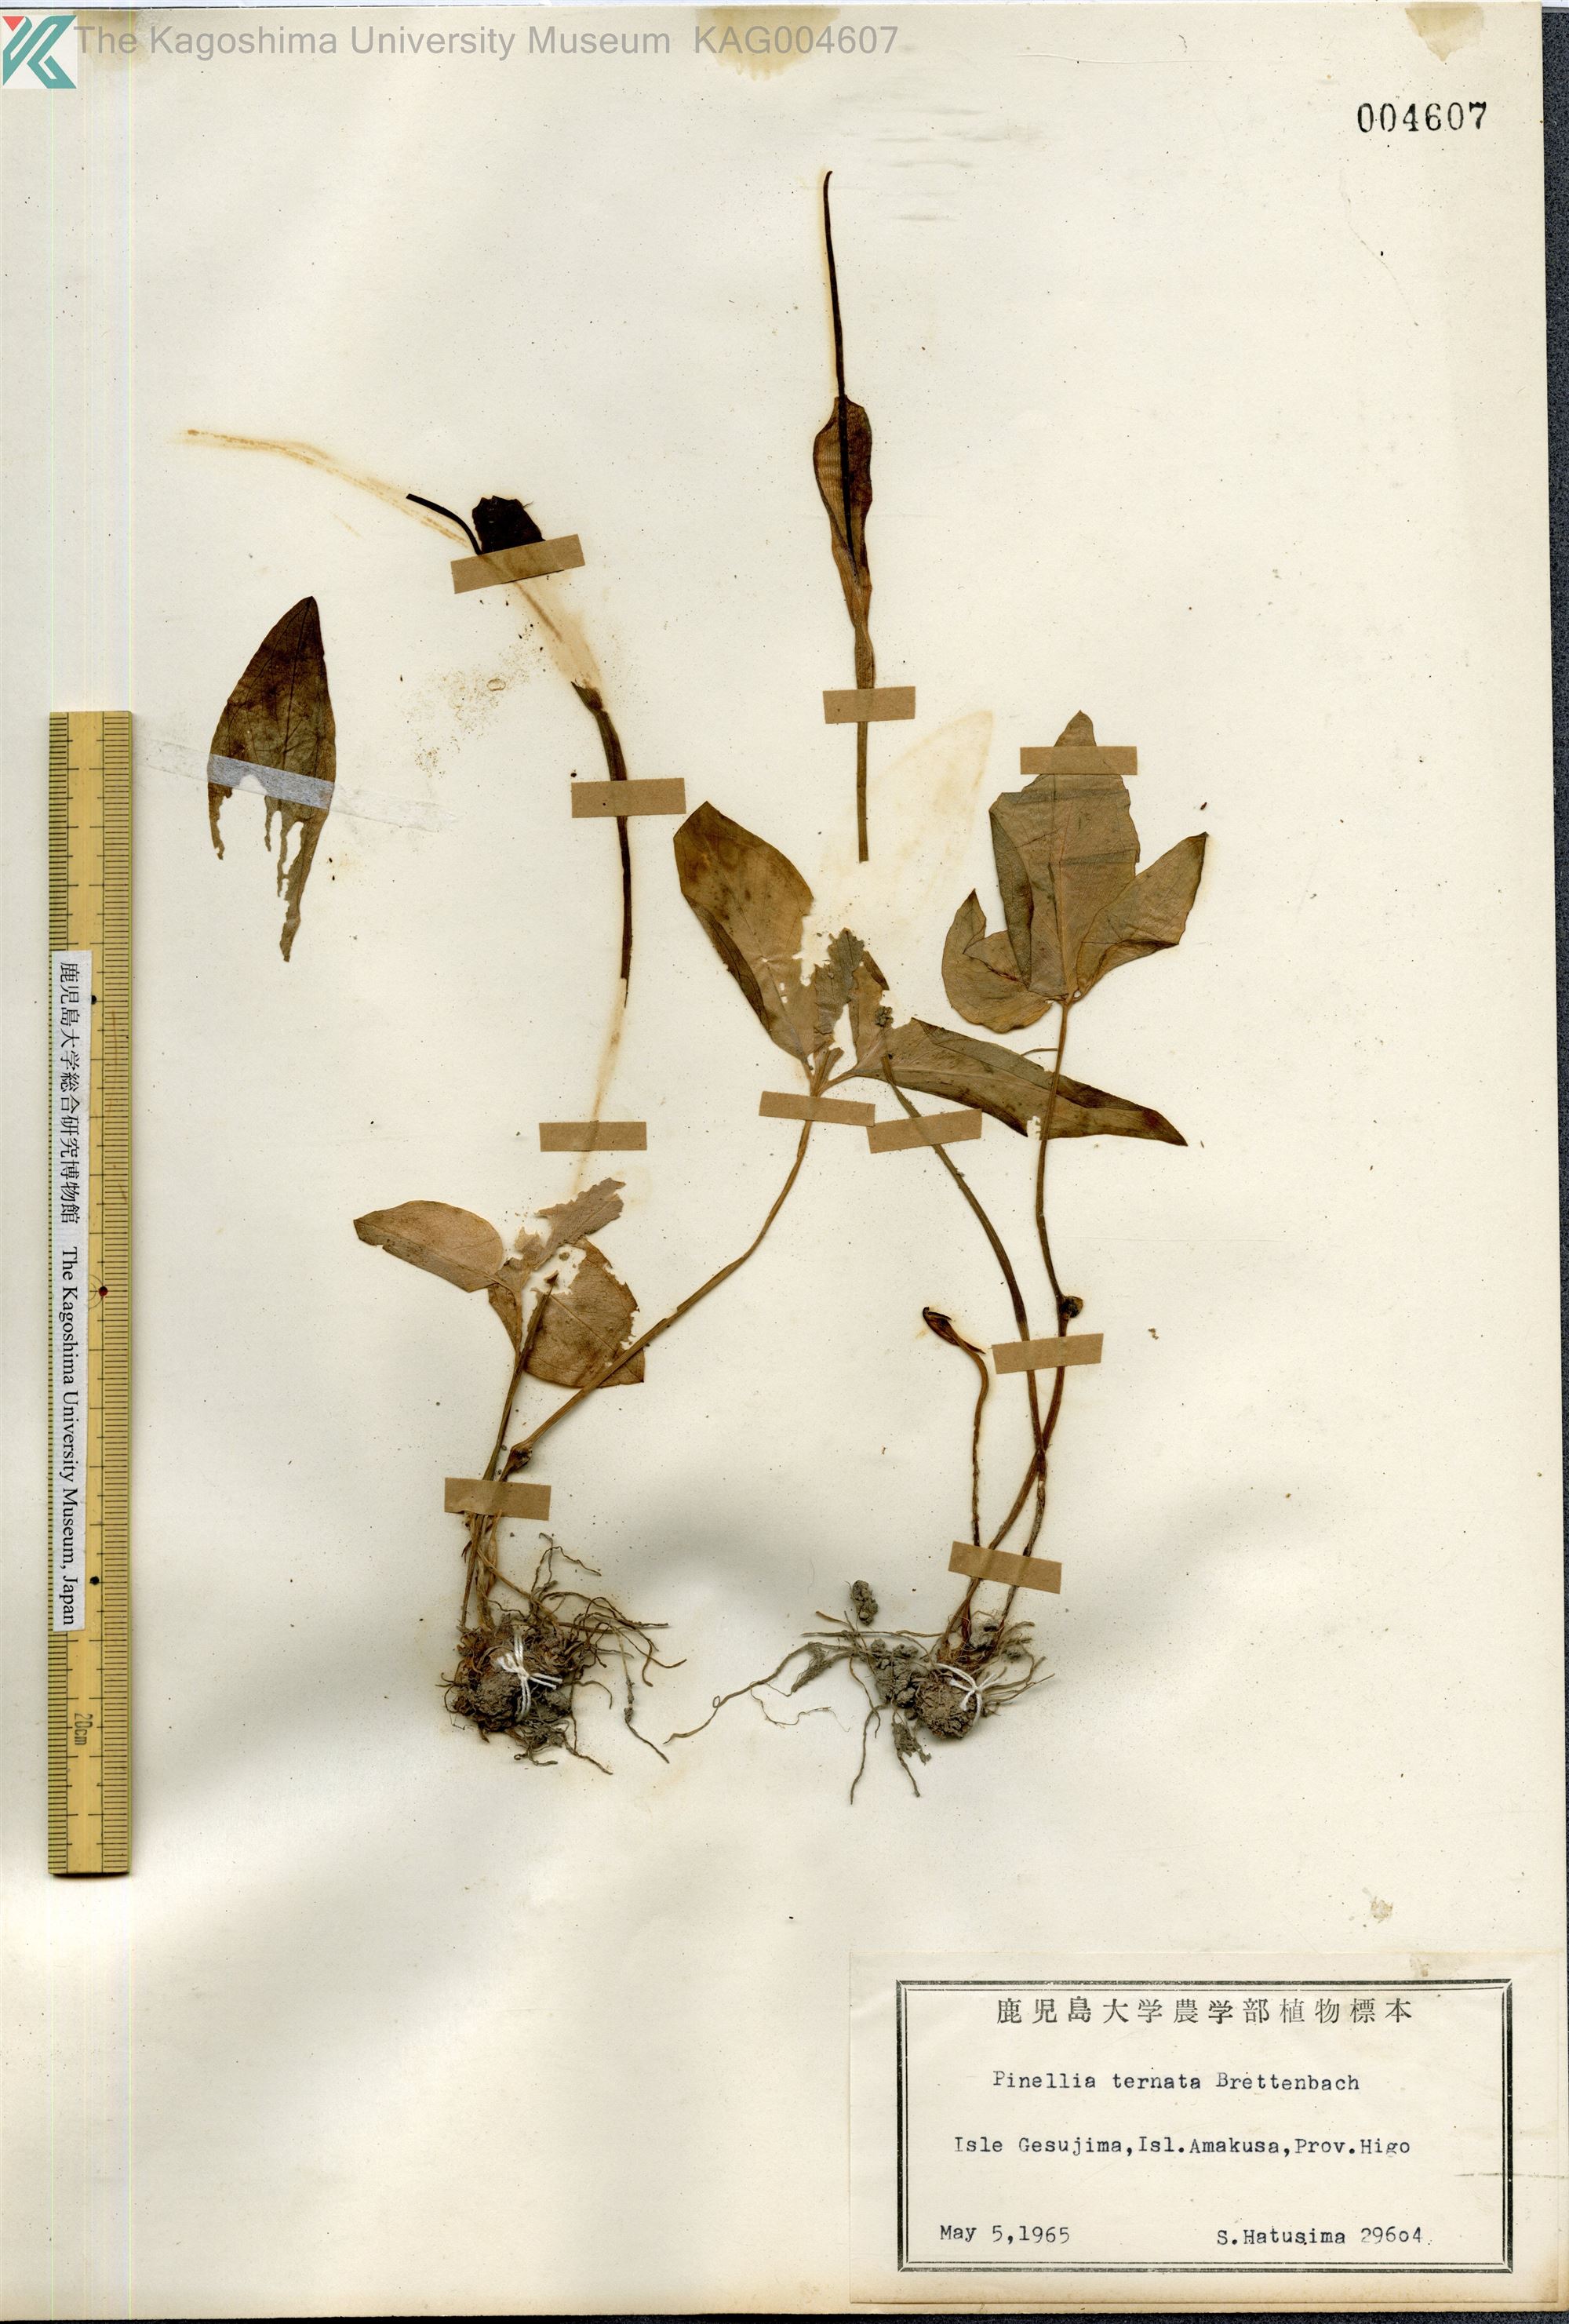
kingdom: Plantae
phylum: Tracheophyta
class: Liliopsida
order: Alismatales
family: Araceae
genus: Pinellia
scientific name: Pinellia ternata
